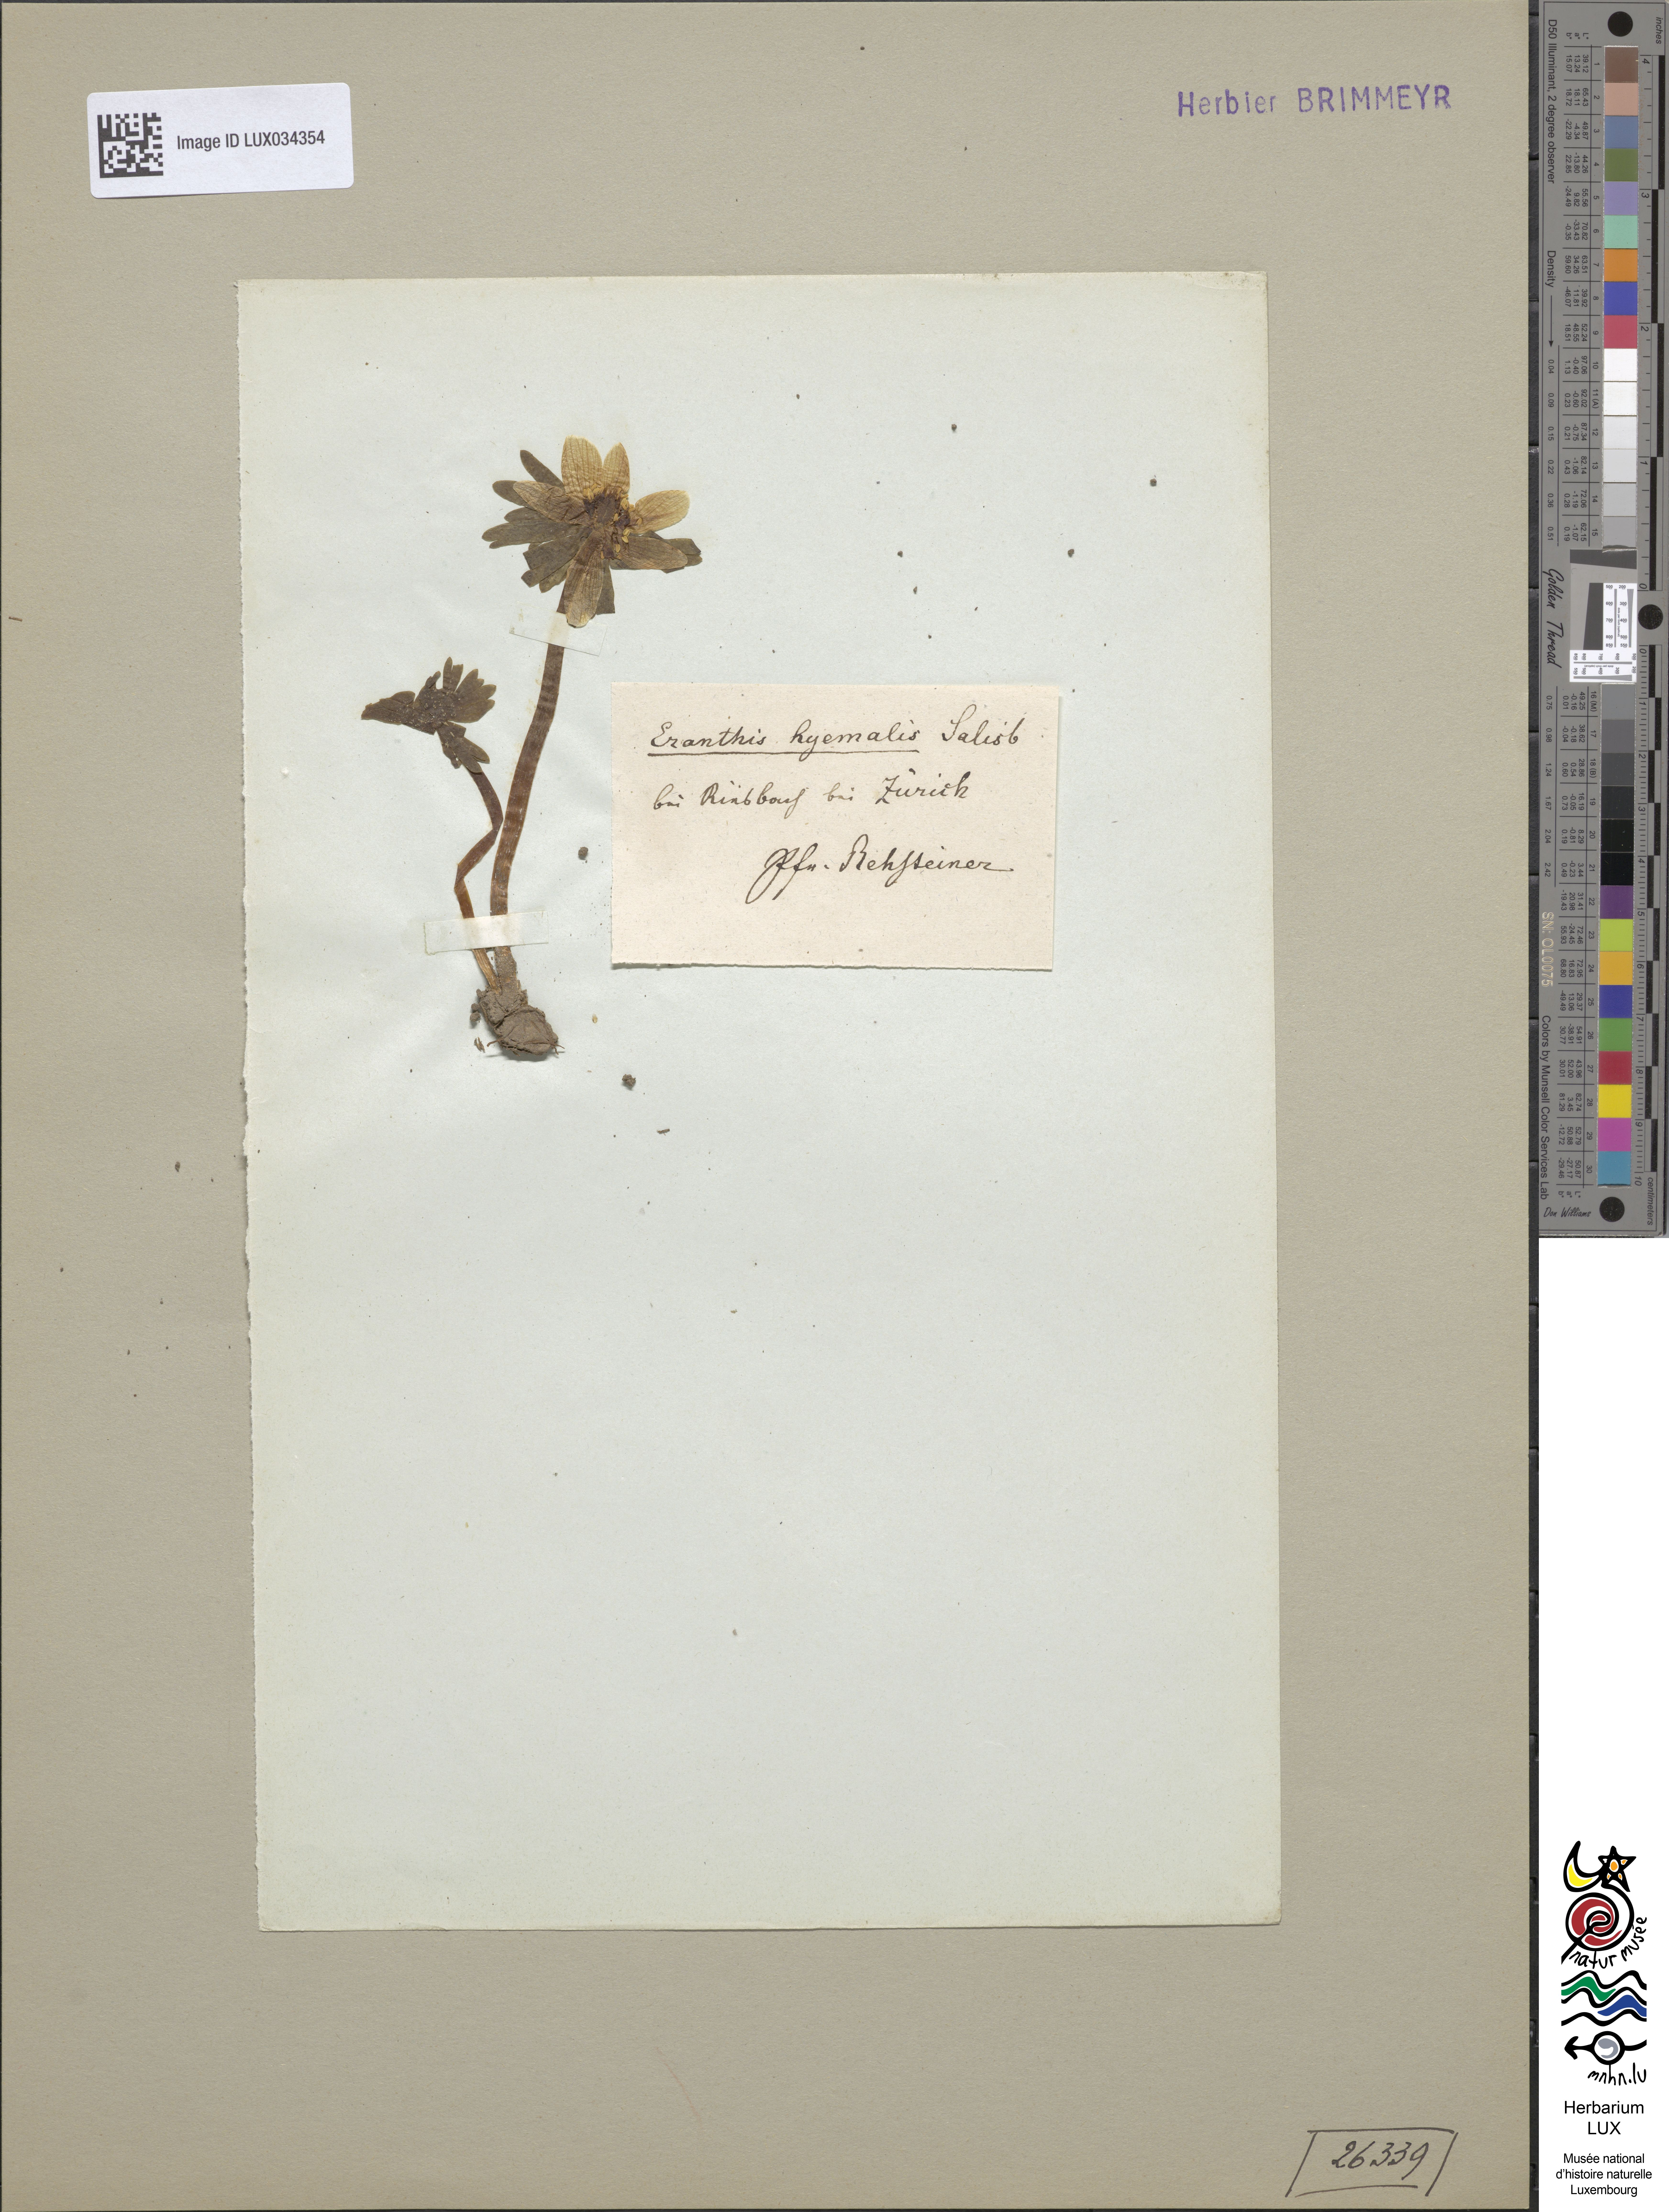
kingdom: Plantae
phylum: Tracheophyta
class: Magnoliopsida
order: Ranunculales
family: Ranunculaceae
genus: Eranthis
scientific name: Eranthis hyemalis
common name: Winter aconite
